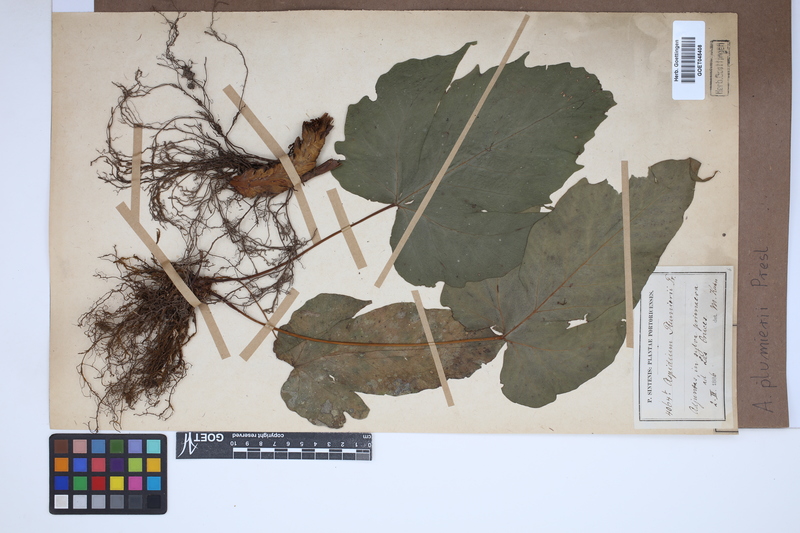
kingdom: Plantae
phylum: Tracheophyta
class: Polypodiopsida
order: Polypodiales
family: Tectariaceae
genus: Tectaria
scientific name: Tectaria trifoliata
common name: Threeleaf halberd fern
